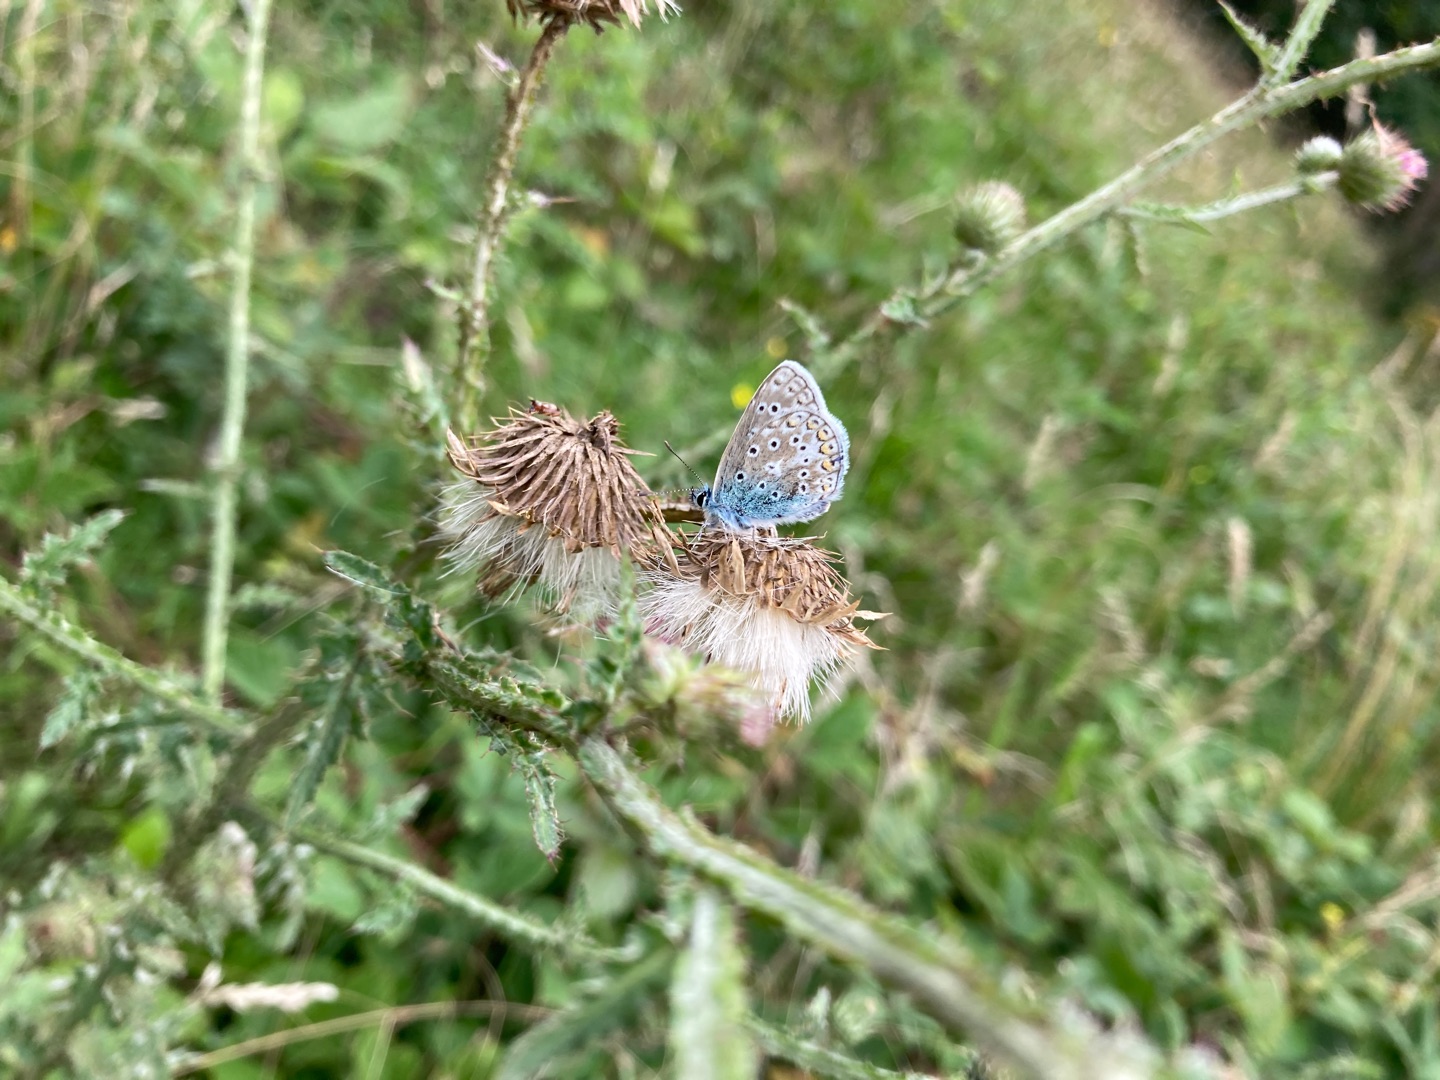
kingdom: Animalia
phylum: Arthropoda
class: Insecta
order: Lepidoptera
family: Lycaenidae
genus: Polyommatus
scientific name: Polyommatus icarus
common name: Almindelig blåfugl
